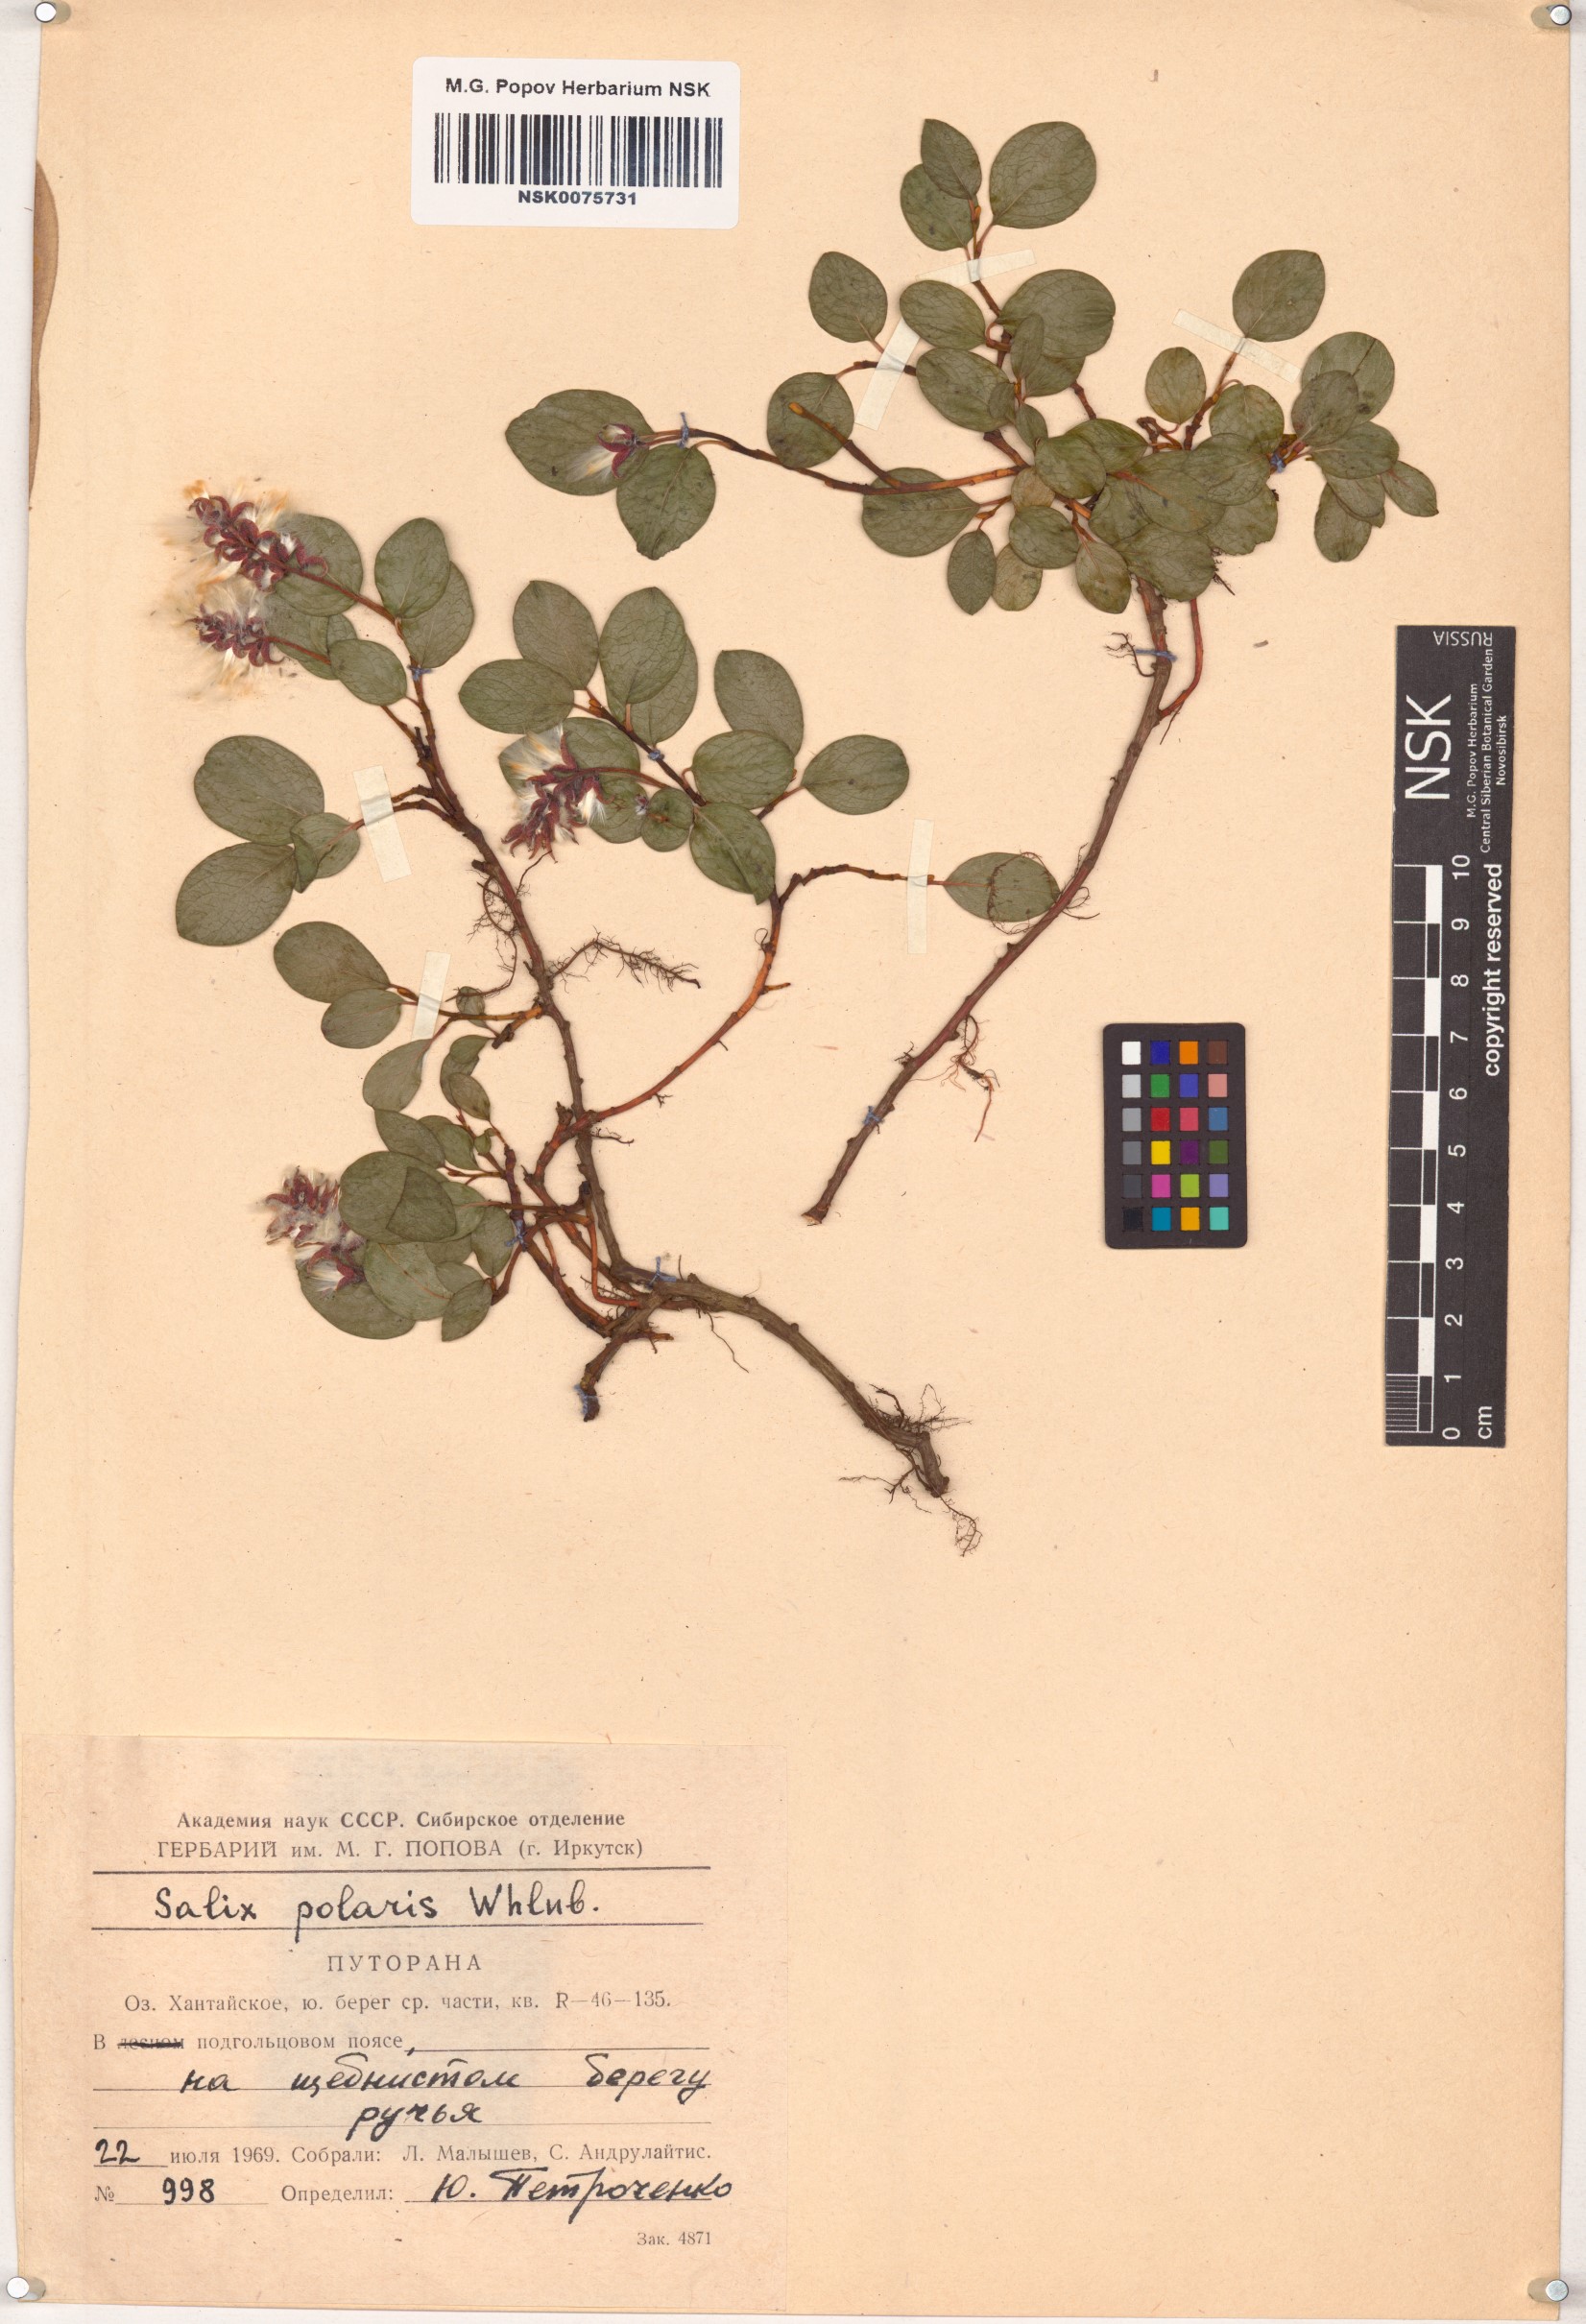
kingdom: Plantae
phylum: Tracheophyta
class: Magnoliopsida
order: Malpighiales
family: Salicaceae
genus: Salix
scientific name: Salix polaris
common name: Polar willow
